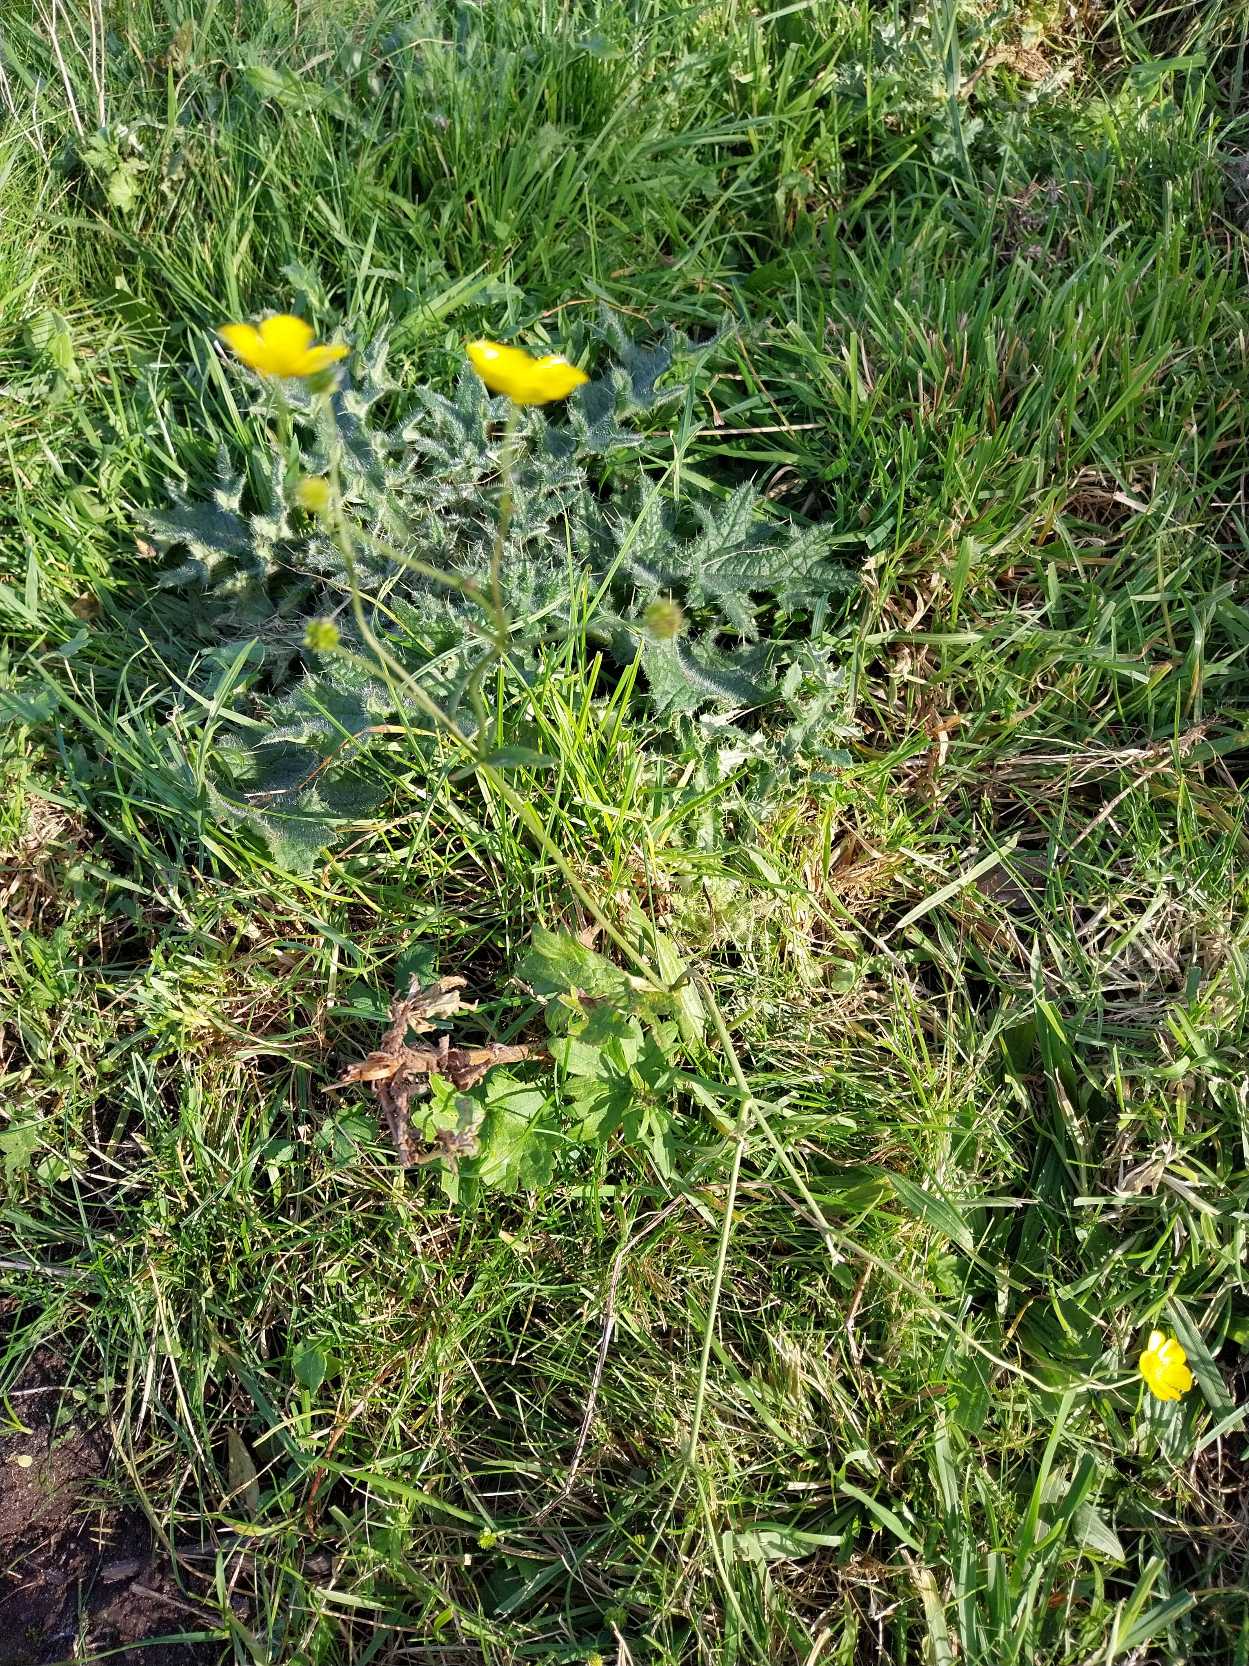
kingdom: Plantae
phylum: Tracheophyta
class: Magnoliopsida
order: Ranunculales
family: Ranunculaceae
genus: Ranunculus
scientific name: Ranunculus acris
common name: Bidende ranunkel
